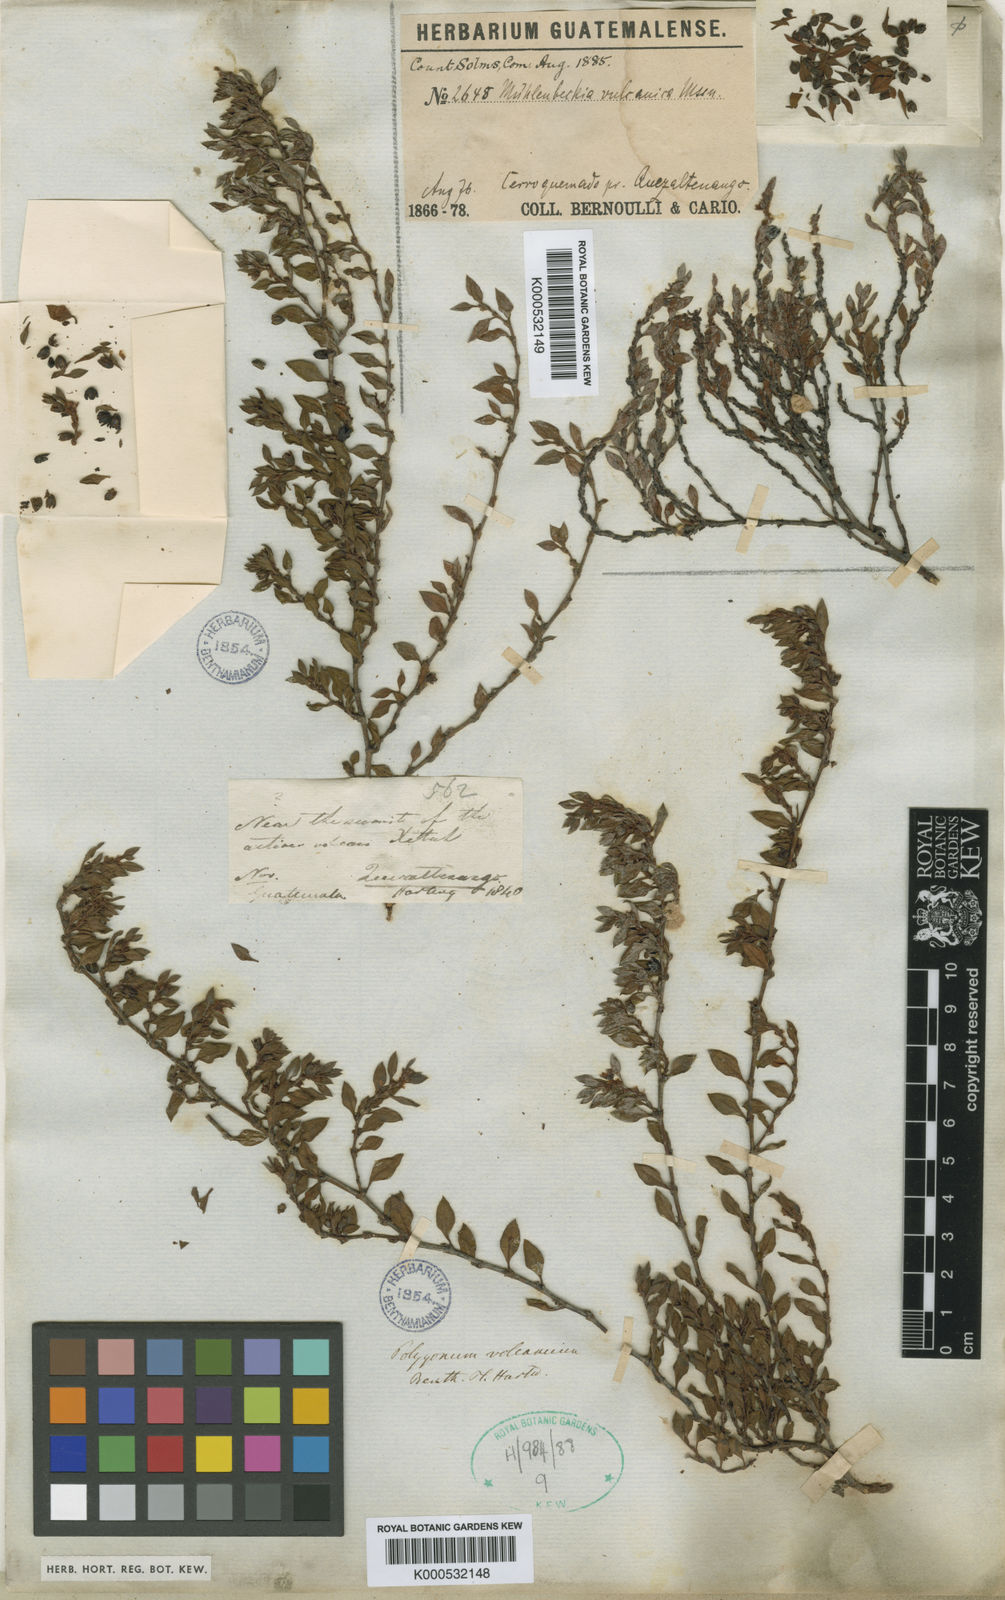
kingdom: Plantae
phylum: Tracheophyta
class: Magnoliopsida
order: Caryophyllales
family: Polygonaceae
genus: Muehlenbeckia
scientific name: Muehlenbeckia volcanica
